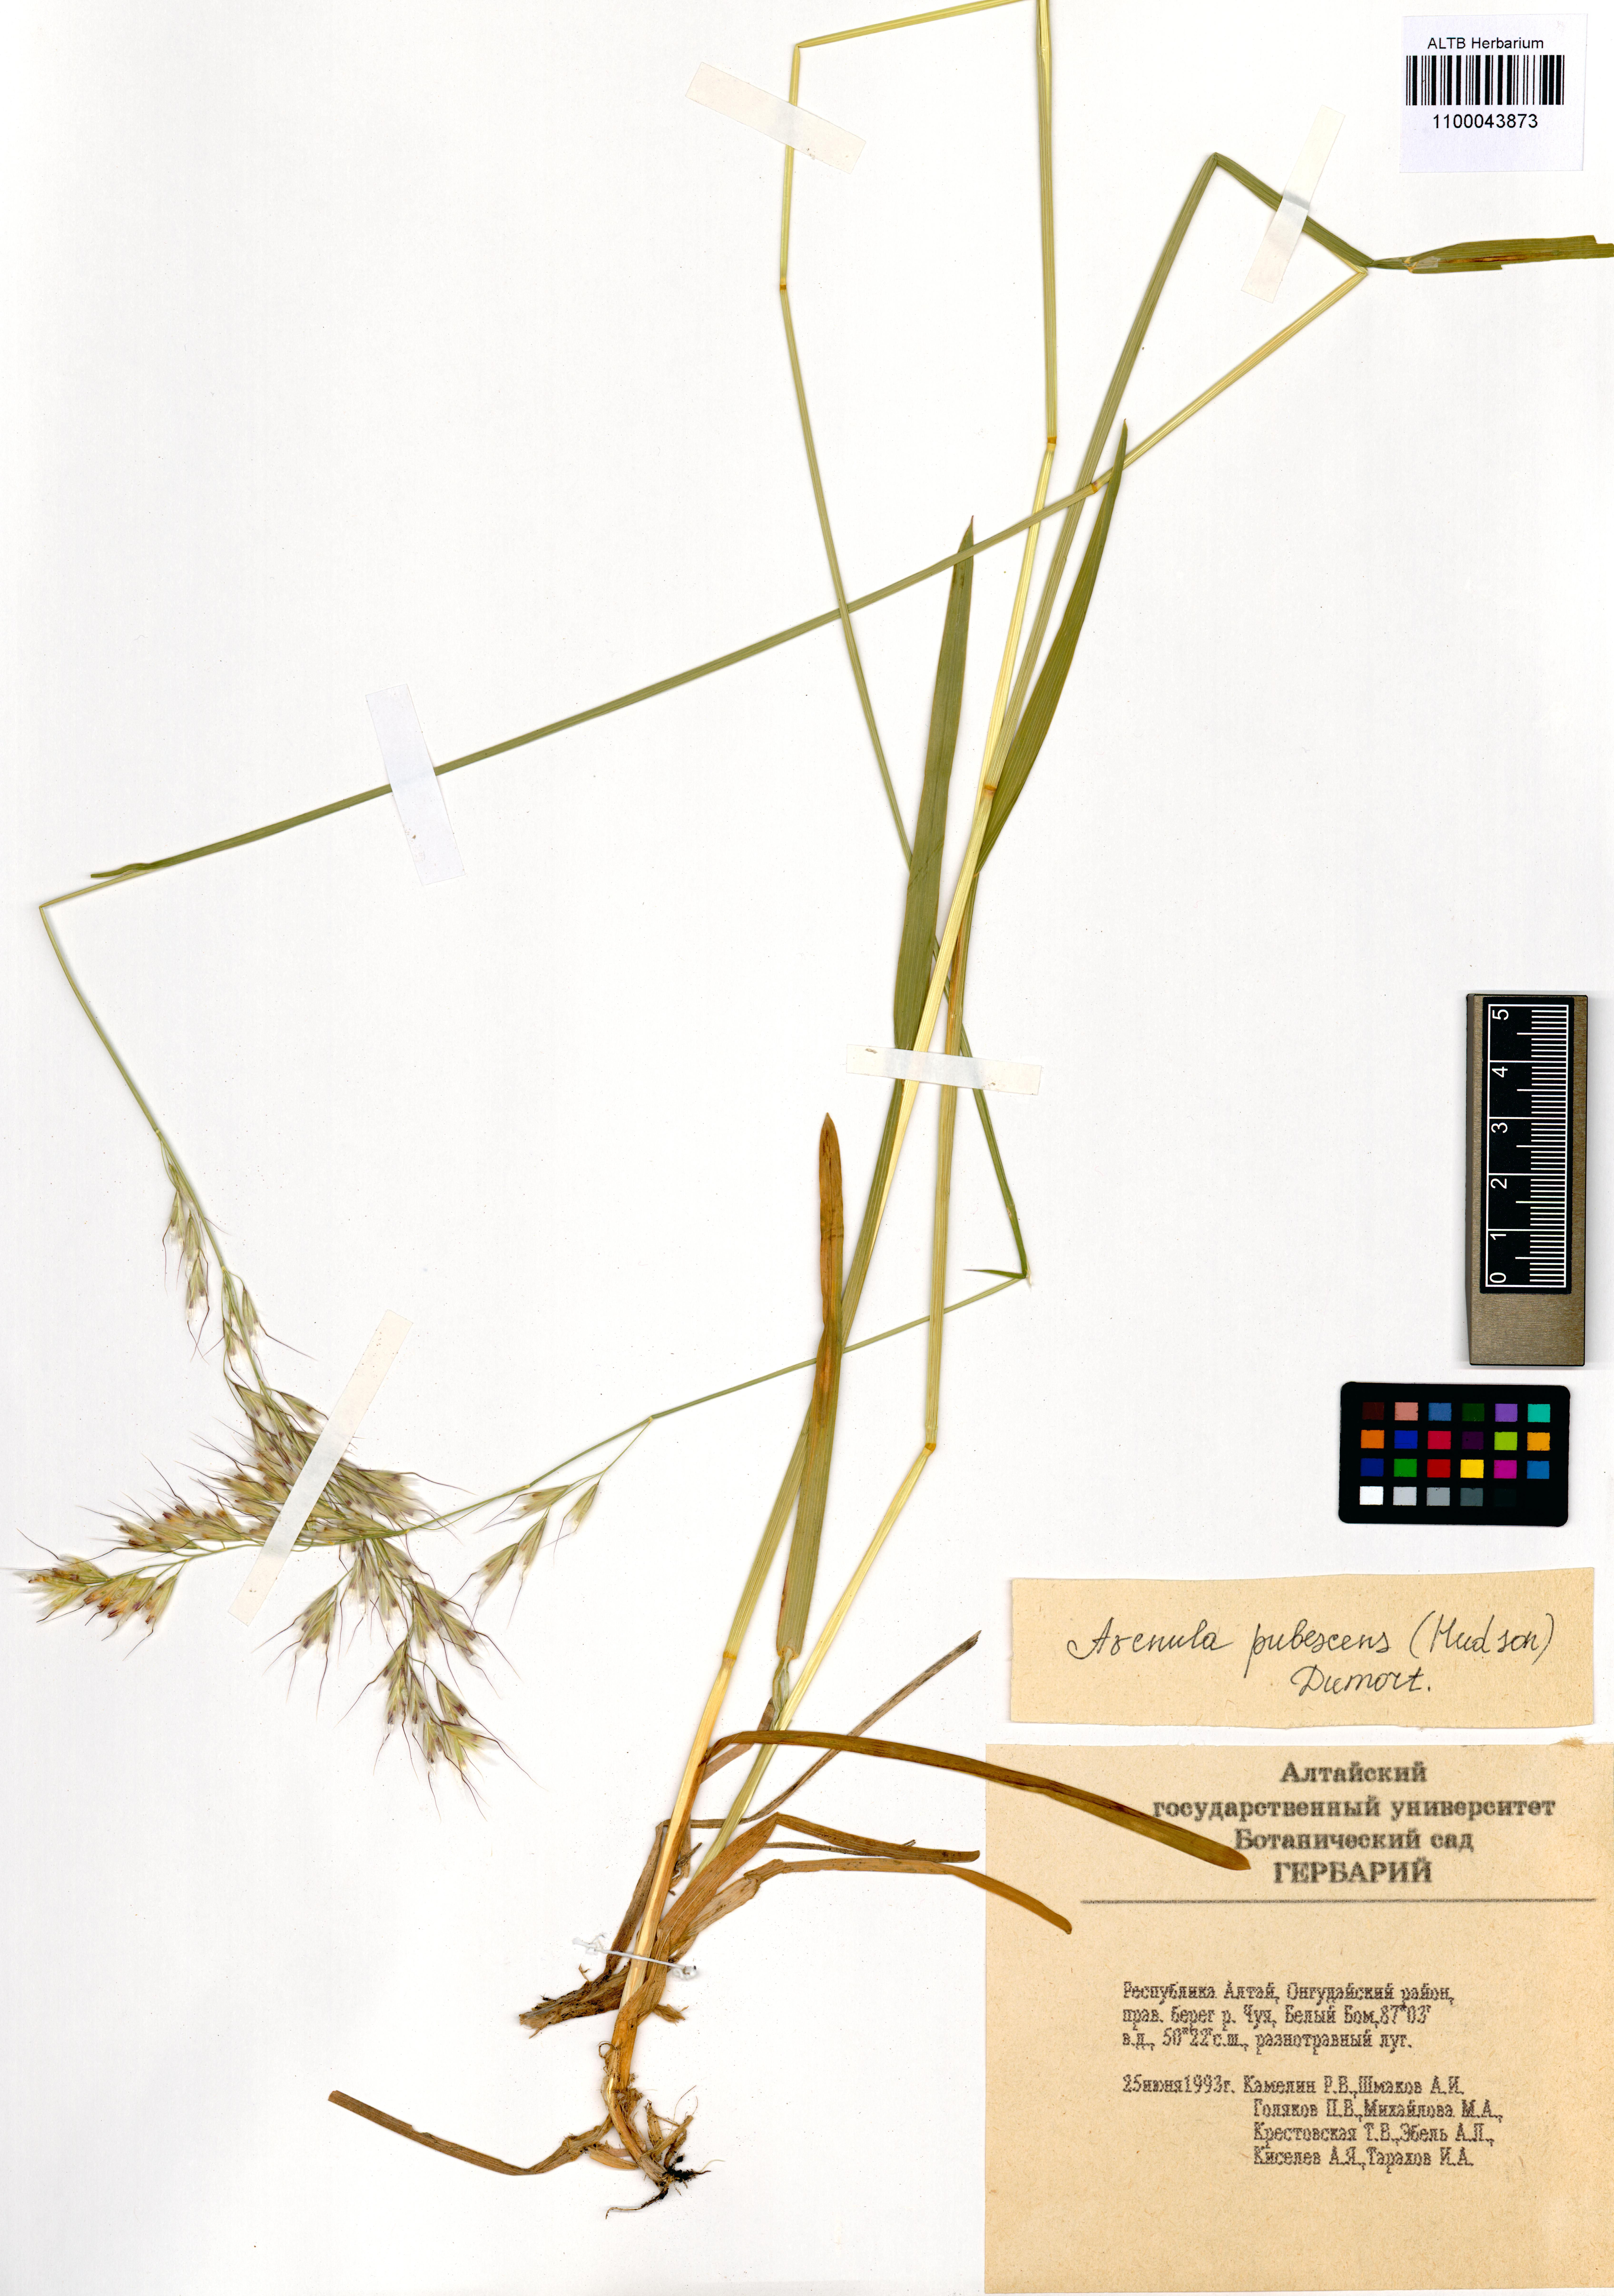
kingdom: Plantae
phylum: Tracheophyta
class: Liliopsida
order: Poales
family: Poaceae
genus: Avenula
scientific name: Avenula pubescens
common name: Downy alpine oatgrass
